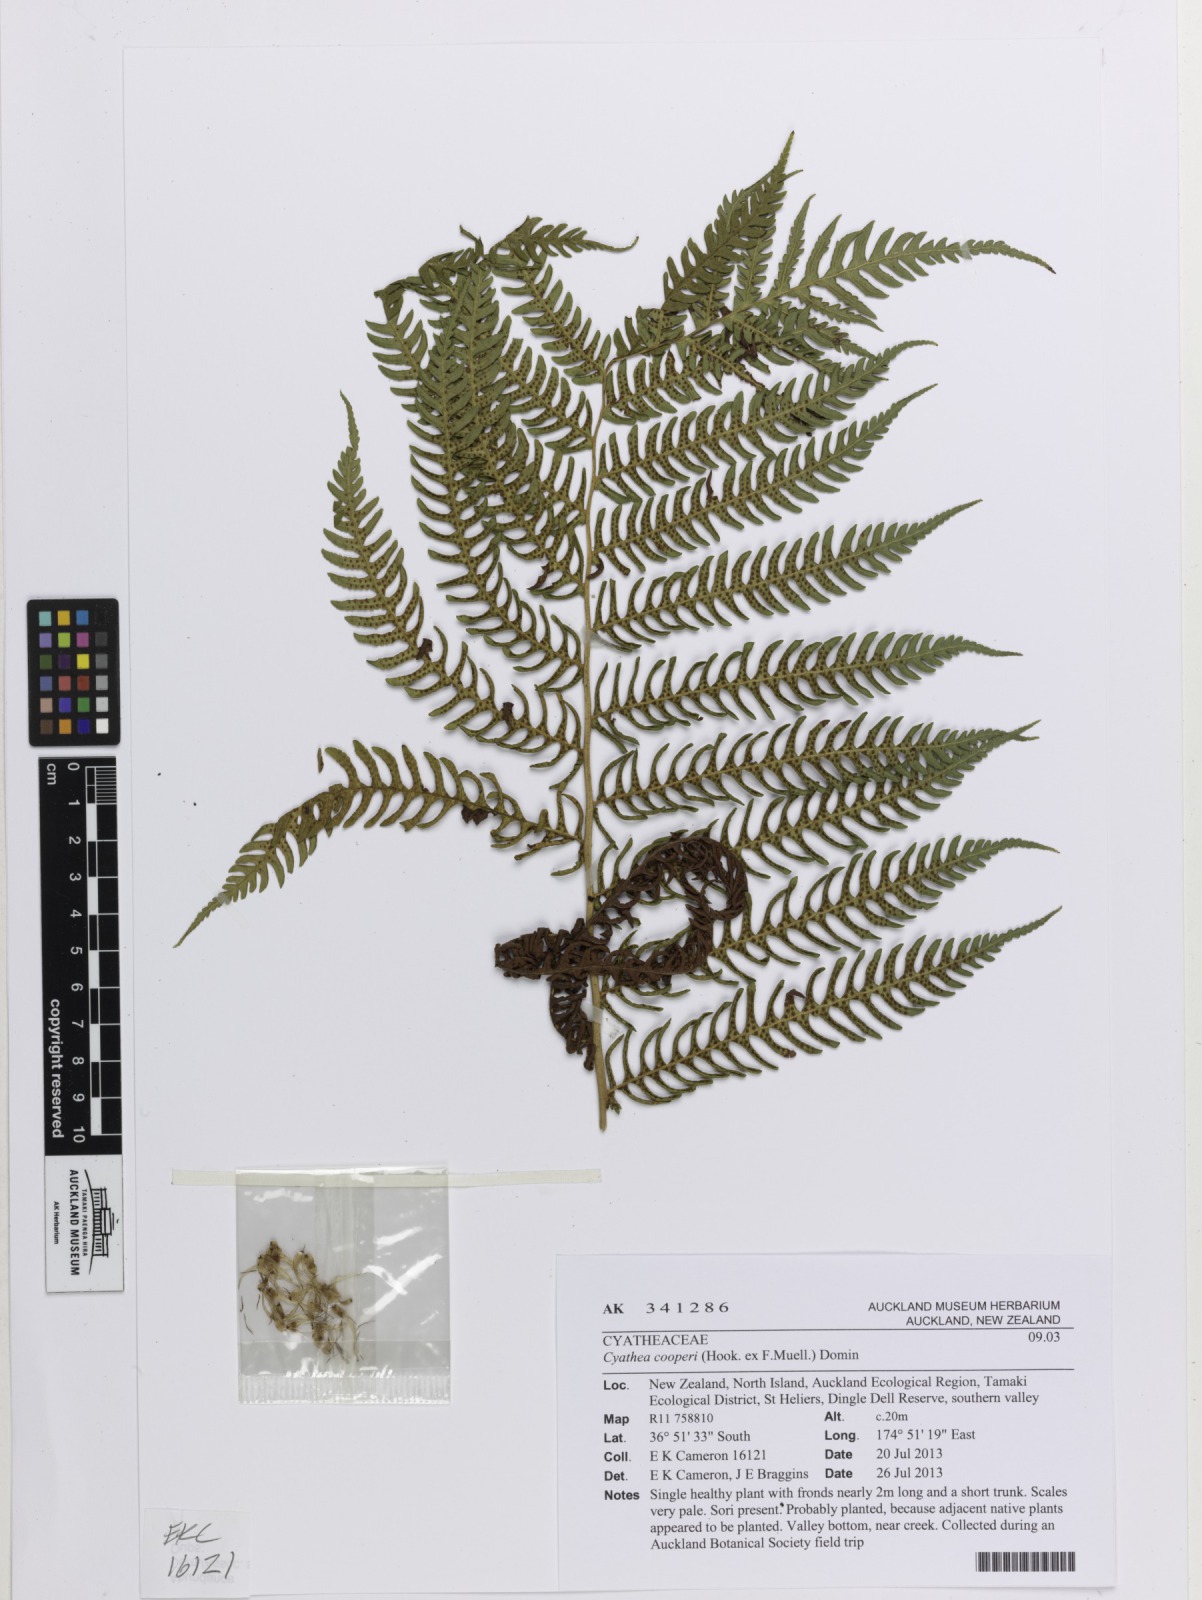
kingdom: Plantae
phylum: Tracheophyta
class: Polypodiopsida
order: Cyatheales
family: Cyatheaceae
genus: Sphaeropteris
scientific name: Sphaeropteris excelsa
